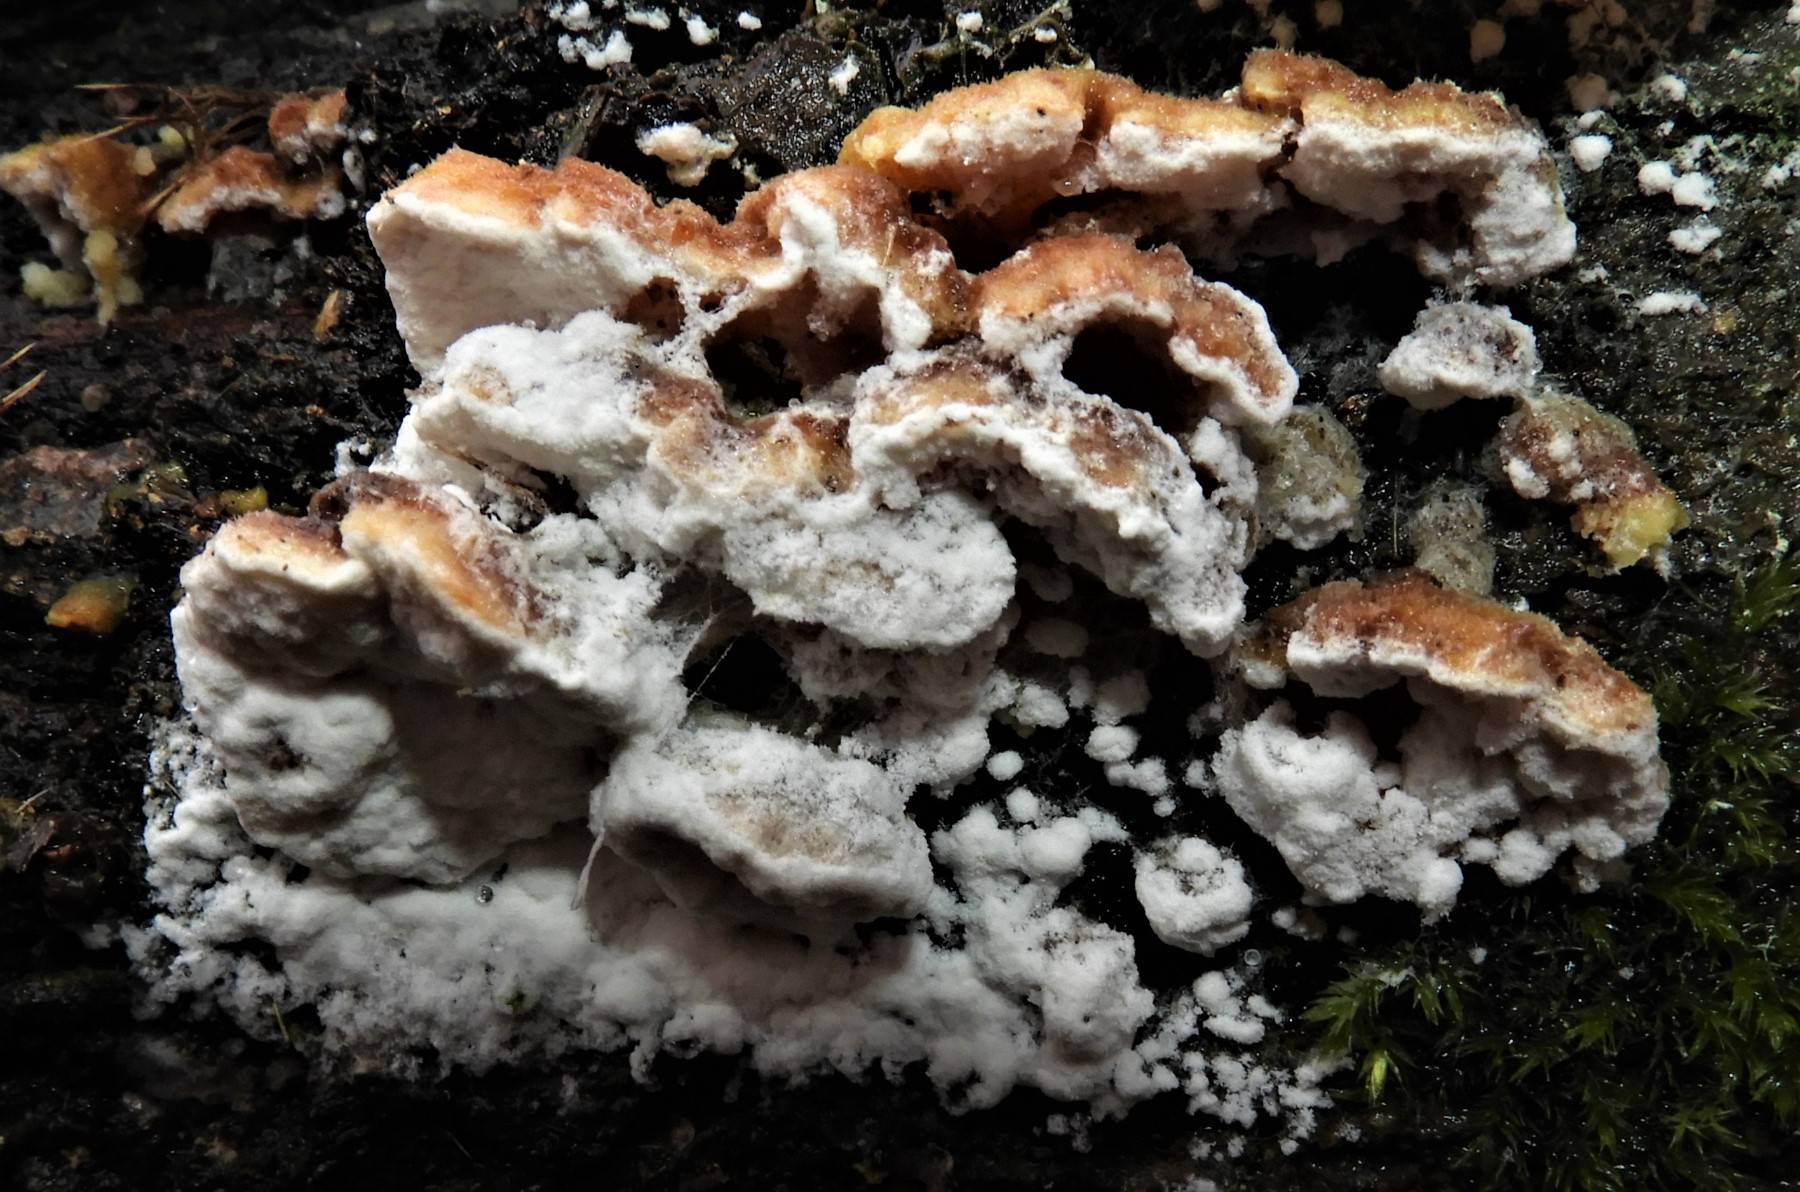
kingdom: Fungi
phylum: Ascomycota
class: Sordariomycetes
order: Hypocreales
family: Hypocreaceae
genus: Hypomyces
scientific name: Hypomyces
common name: snylteskorpe
